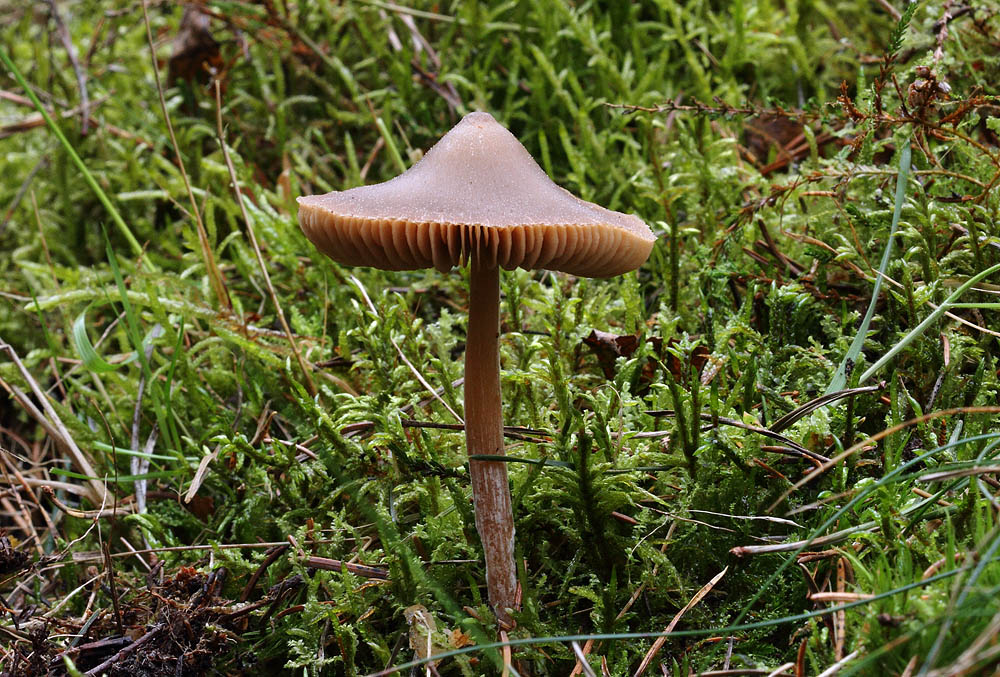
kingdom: Fungi
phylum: Basidiomycota
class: Agaricomycetes
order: Agaricales
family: Entolomataceae
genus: Entoloma
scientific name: Entoloma pallescens
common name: tidlig rødblad
